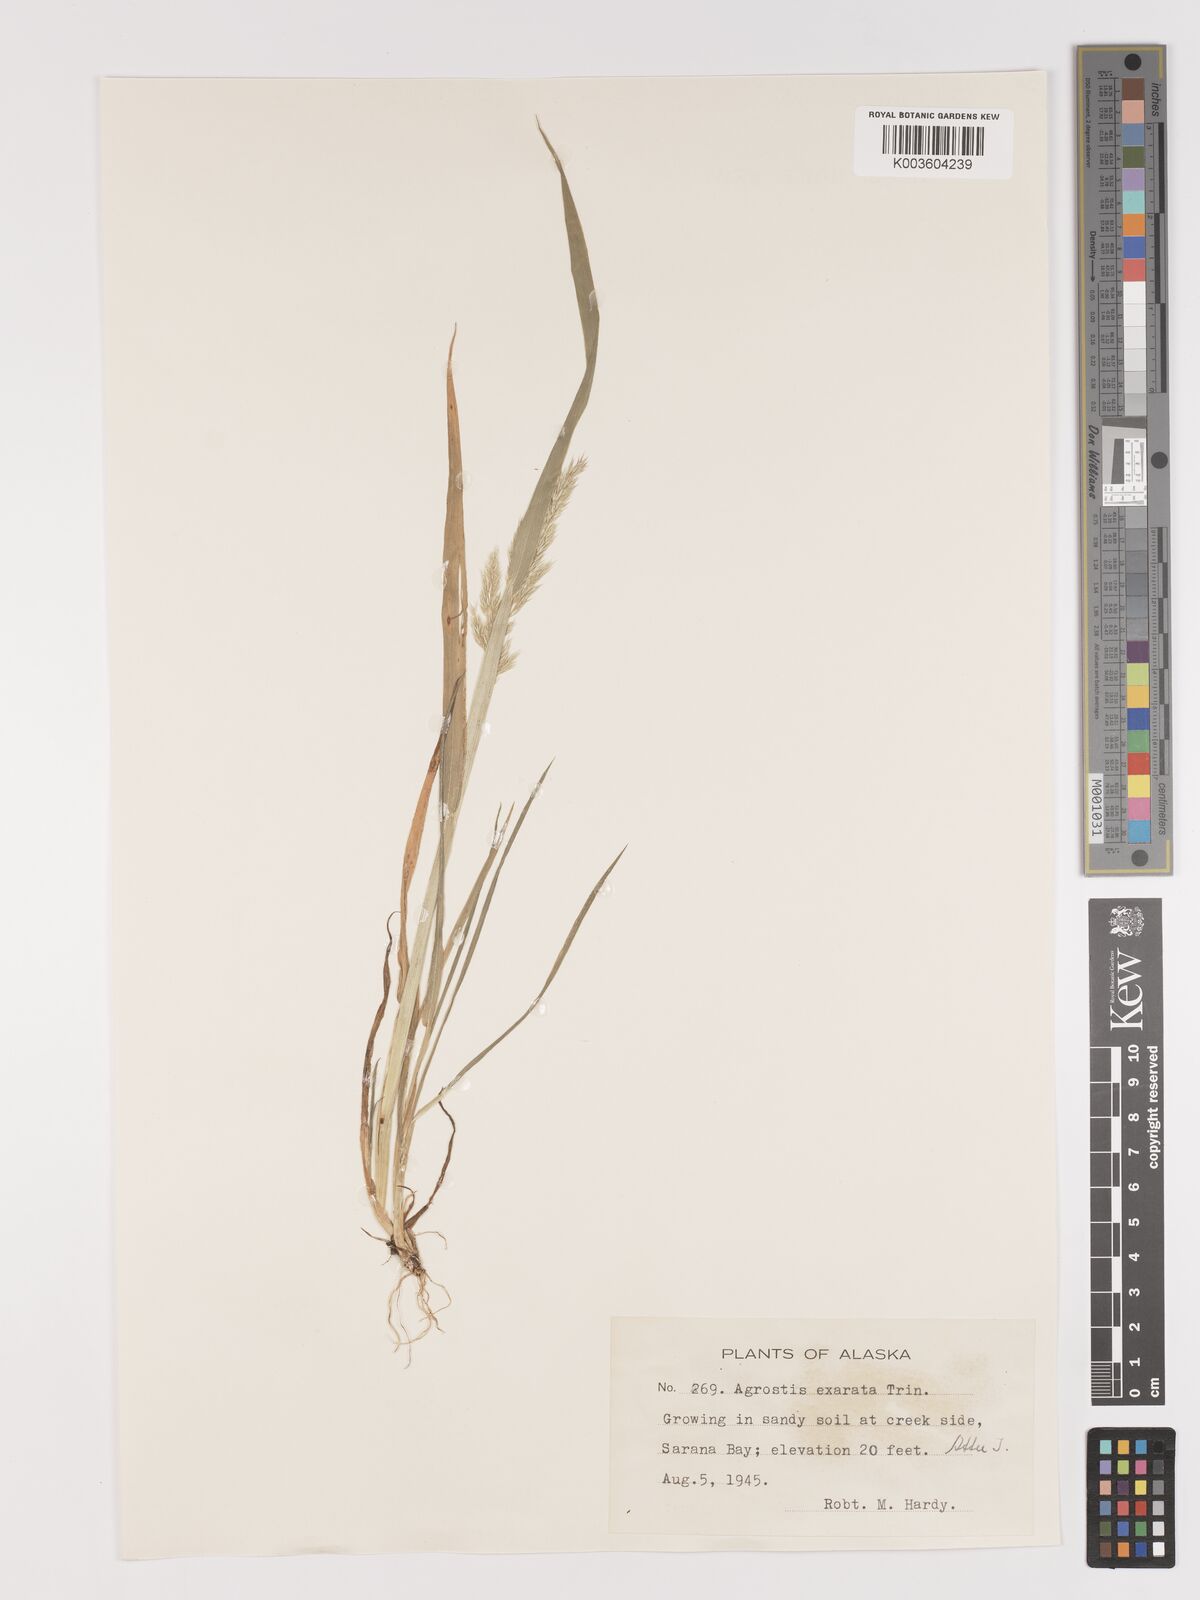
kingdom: Plantae
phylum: Tracheophyta
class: Liliopsida
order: Poales
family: Poaceae
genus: Agrostis
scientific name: Agrostis exarata
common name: Spike bent
